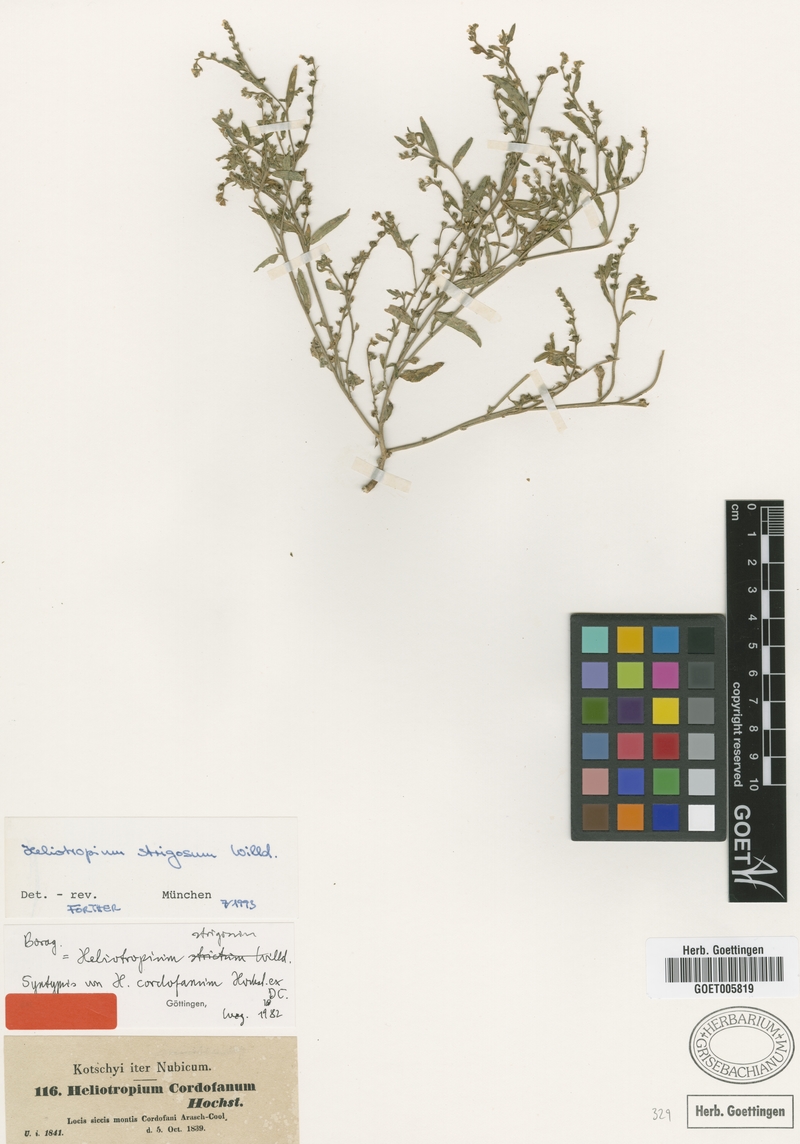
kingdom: Plantae
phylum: Tracheophyta
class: Magnoliopsida
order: Boraginales
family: Heliotropiaceae
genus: Euploca
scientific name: Euploca strigosa
